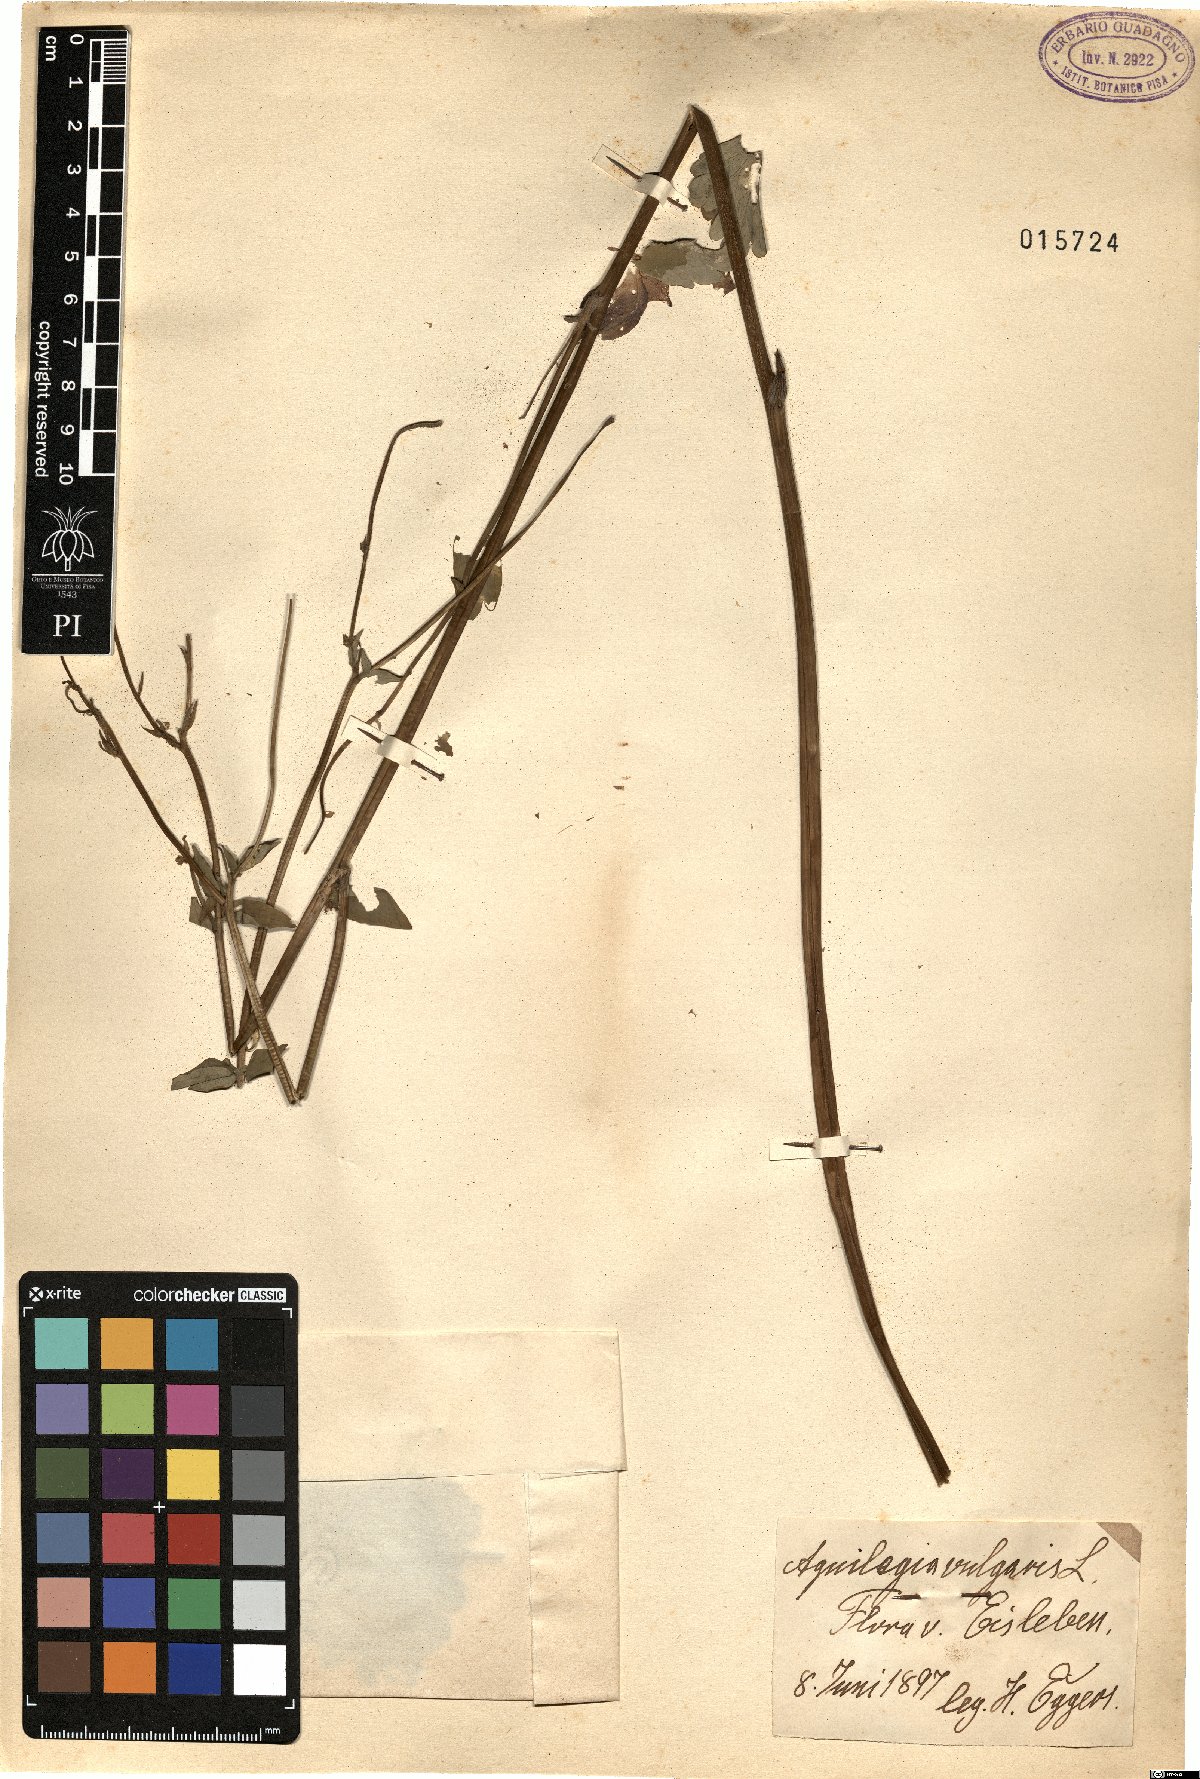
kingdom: Plantae
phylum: Tracheophyta
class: Magnoliopsida
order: Ranunculales
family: Ranunculaceae
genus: Aquilegia
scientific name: Aquilegia vulgaris
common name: Columbine
